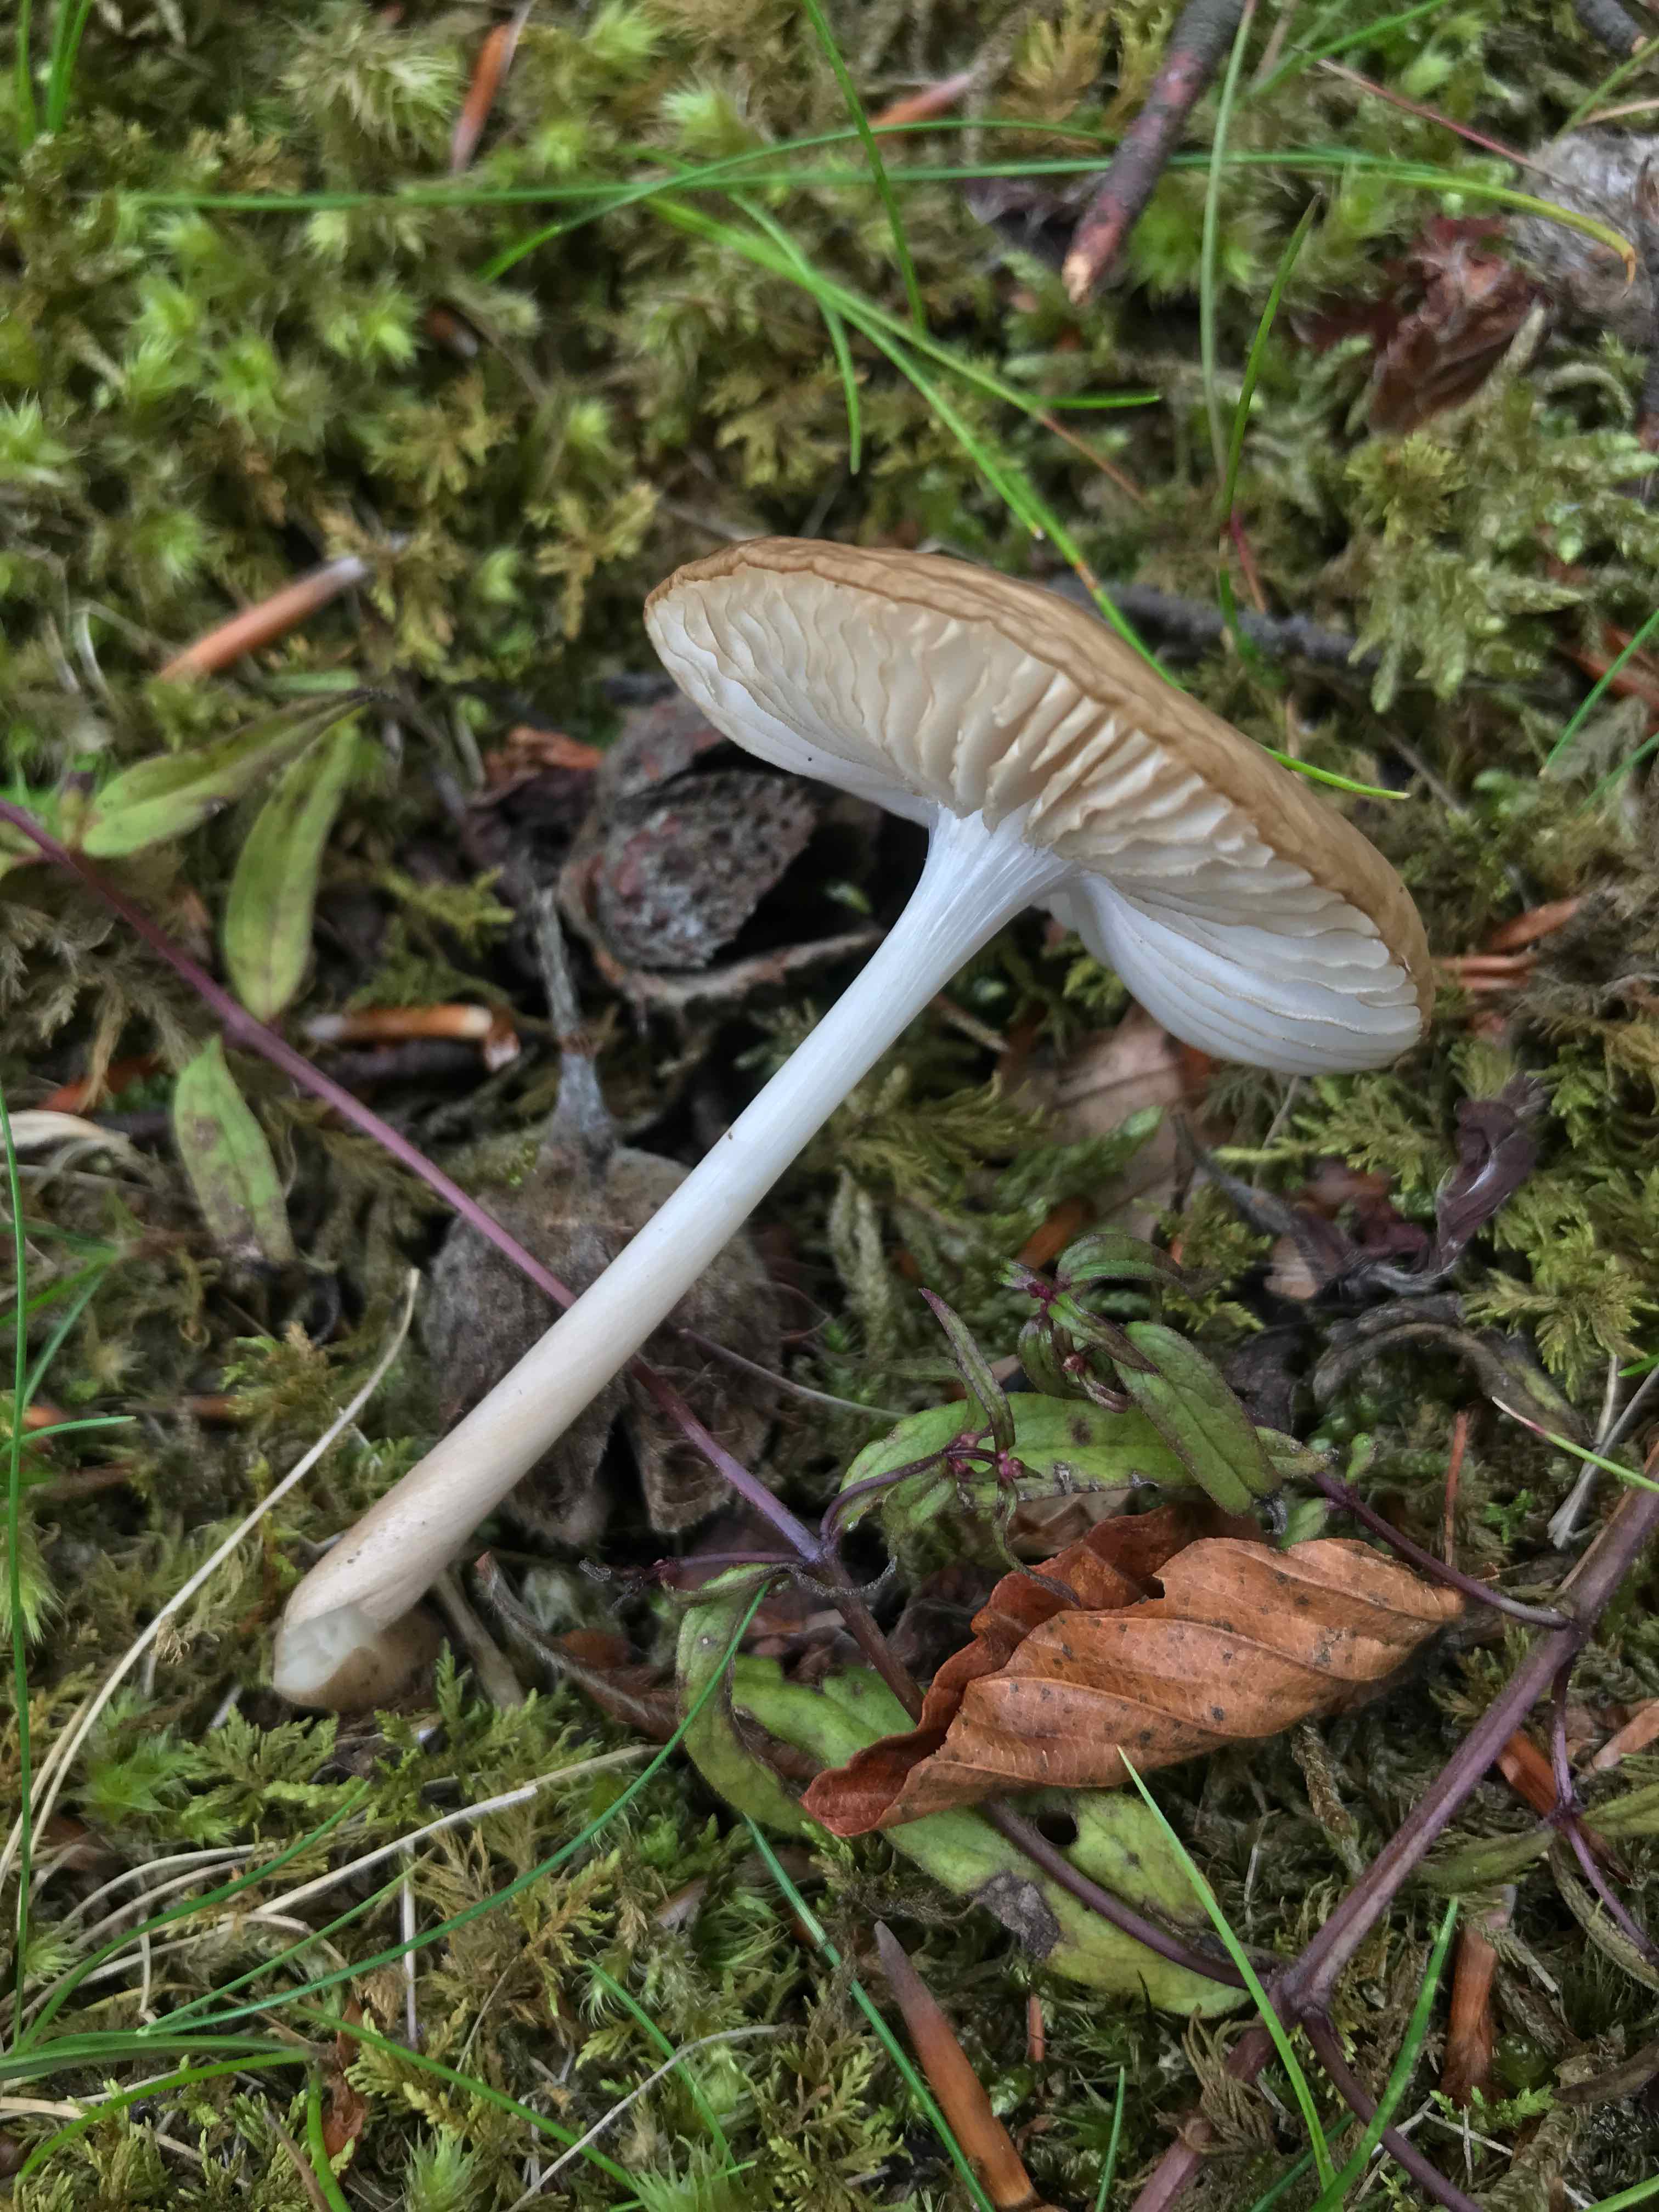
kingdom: Fungi
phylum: Basidiomycota
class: Agaricomycetes
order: Agaricales
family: Physalacriaceae
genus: Hymenopellis
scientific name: Hymenopellis radicata
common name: almindelig pælerodshat
